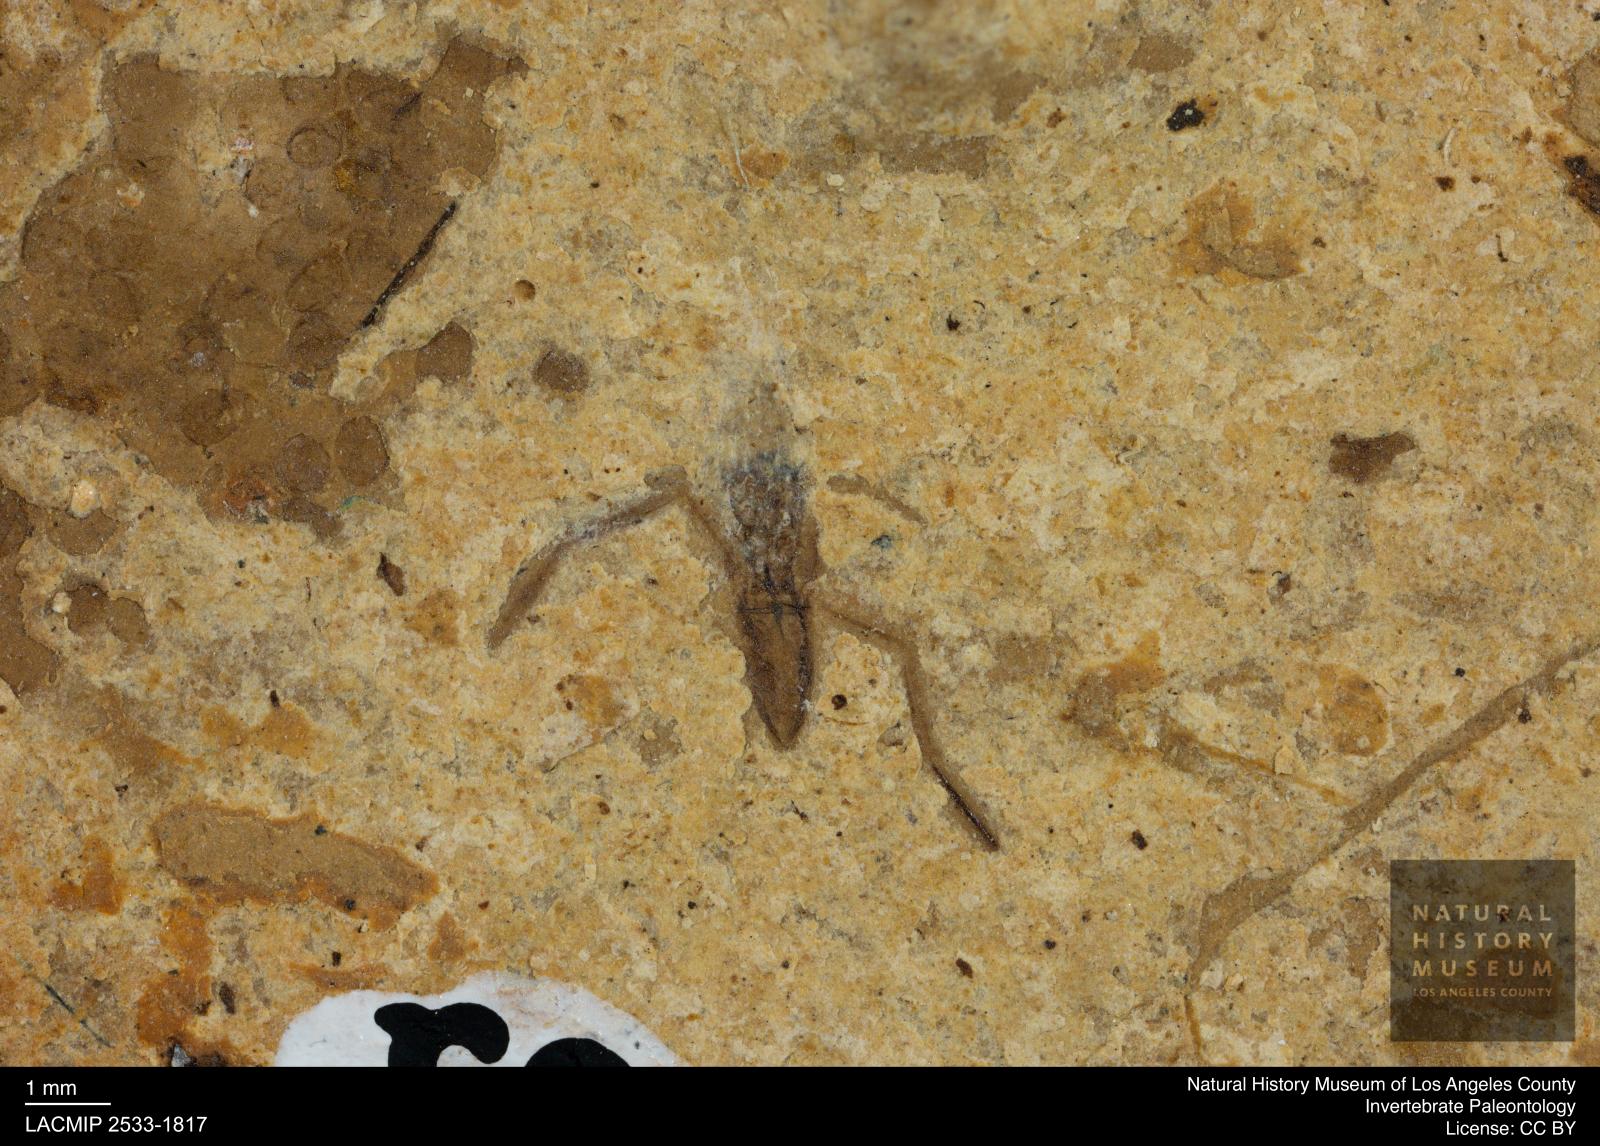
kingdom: Animalia
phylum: Arthropoda
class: Insecta
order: Hemiptera
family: Notonectidae
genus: Notonecta
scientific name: Notonecta
